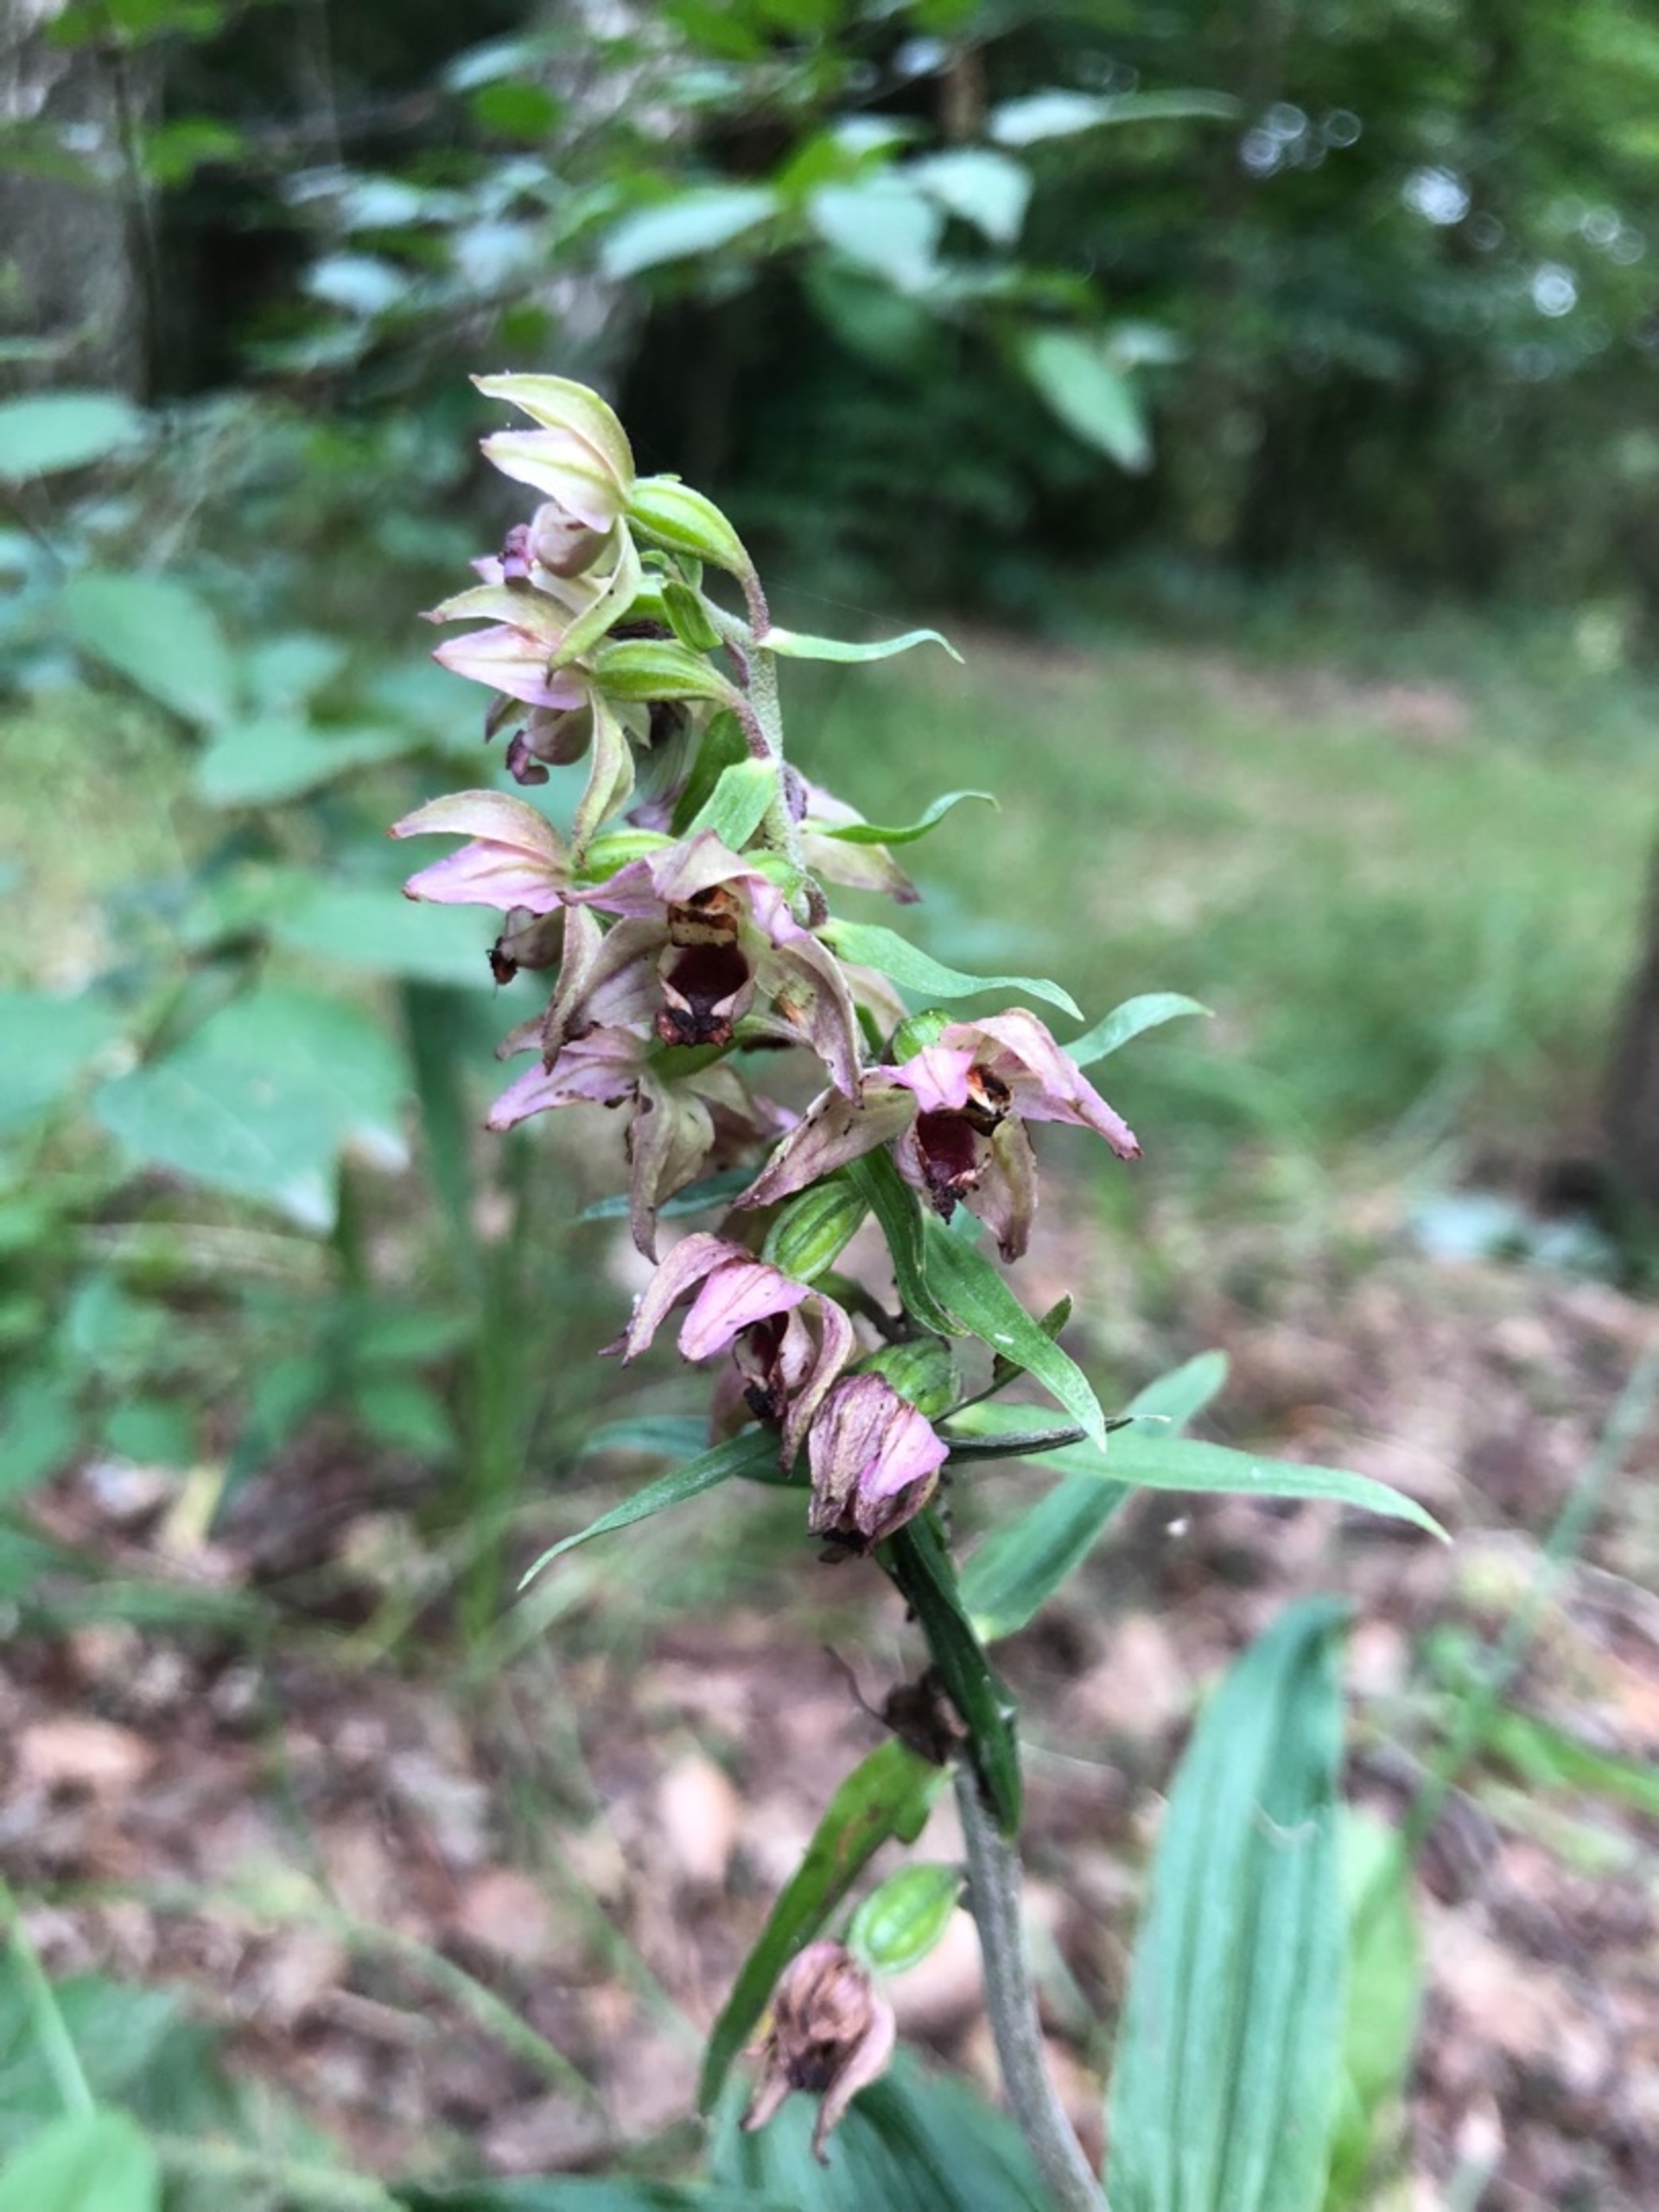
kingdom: Plantae
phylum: Tracheophyta
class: Liliopsida
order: Asparagales
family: Orchidaceae
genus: Epipactis
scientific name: Epipactis helleborine
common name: Skov-hullæbe
